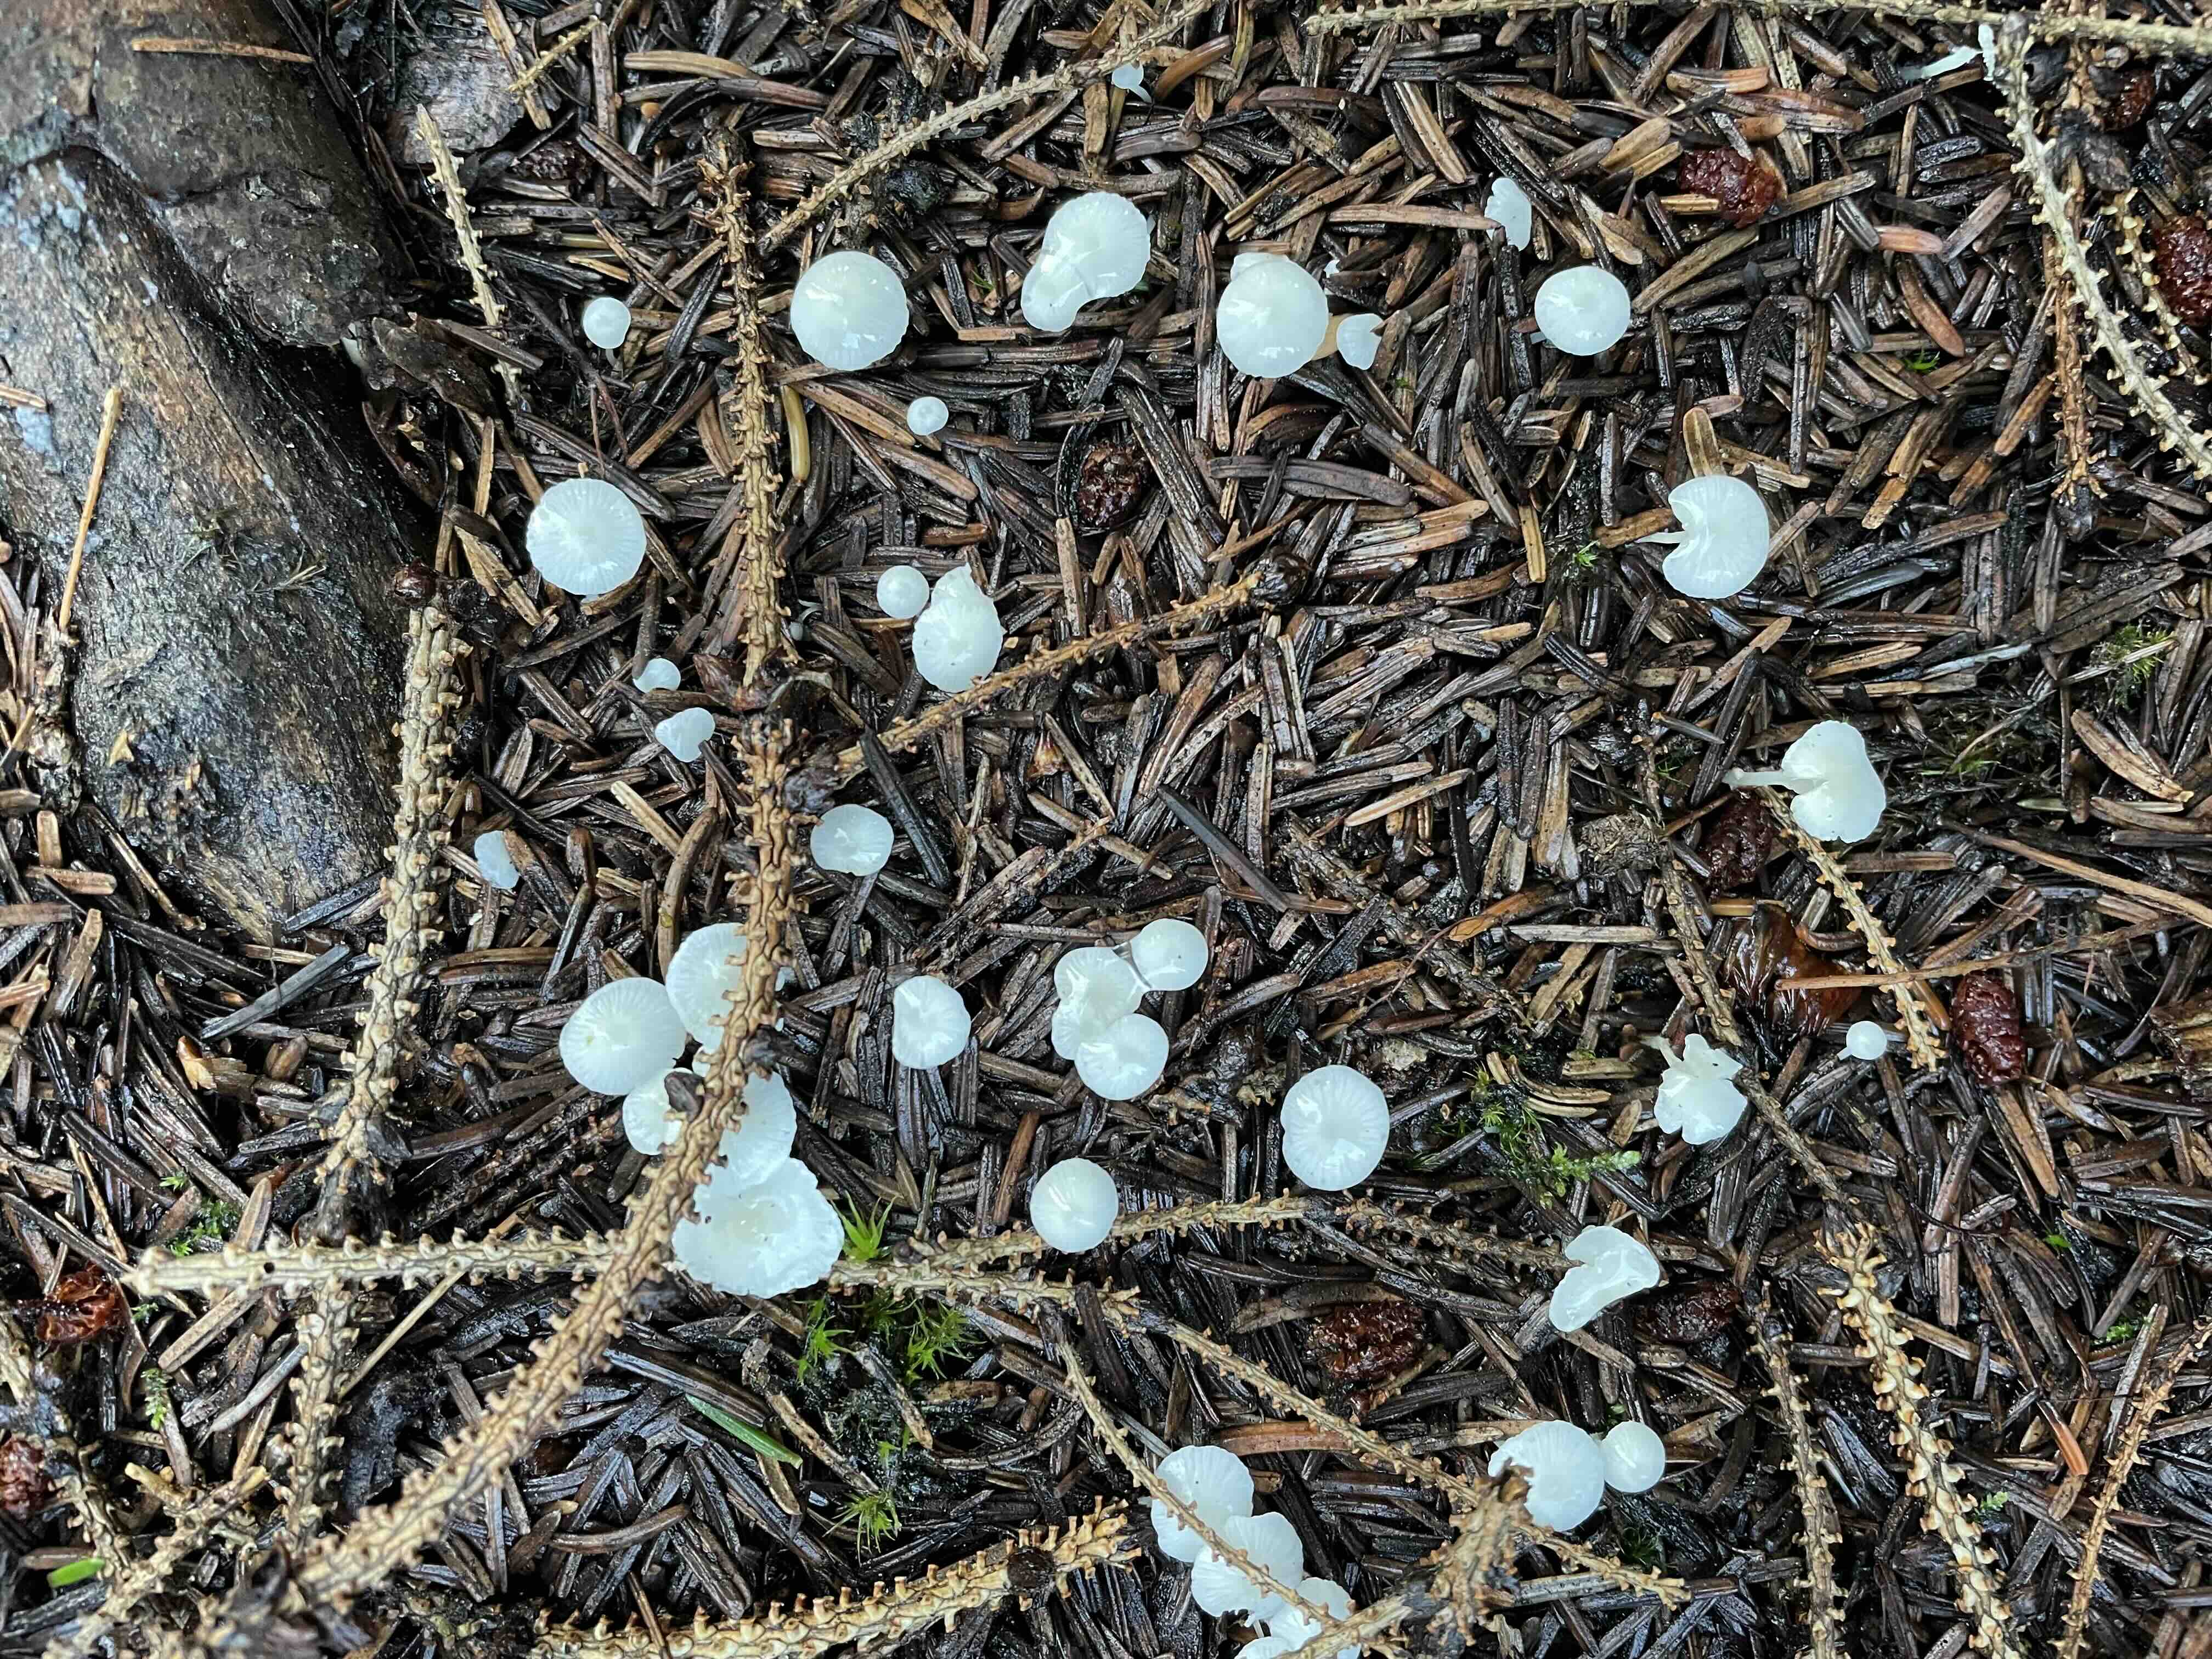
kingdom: Fungi
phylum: Basidiomycota
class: Agaricomycetes
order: Agaricales
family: Mycenaceae
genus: Hemimycena
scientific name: Hemimycena
